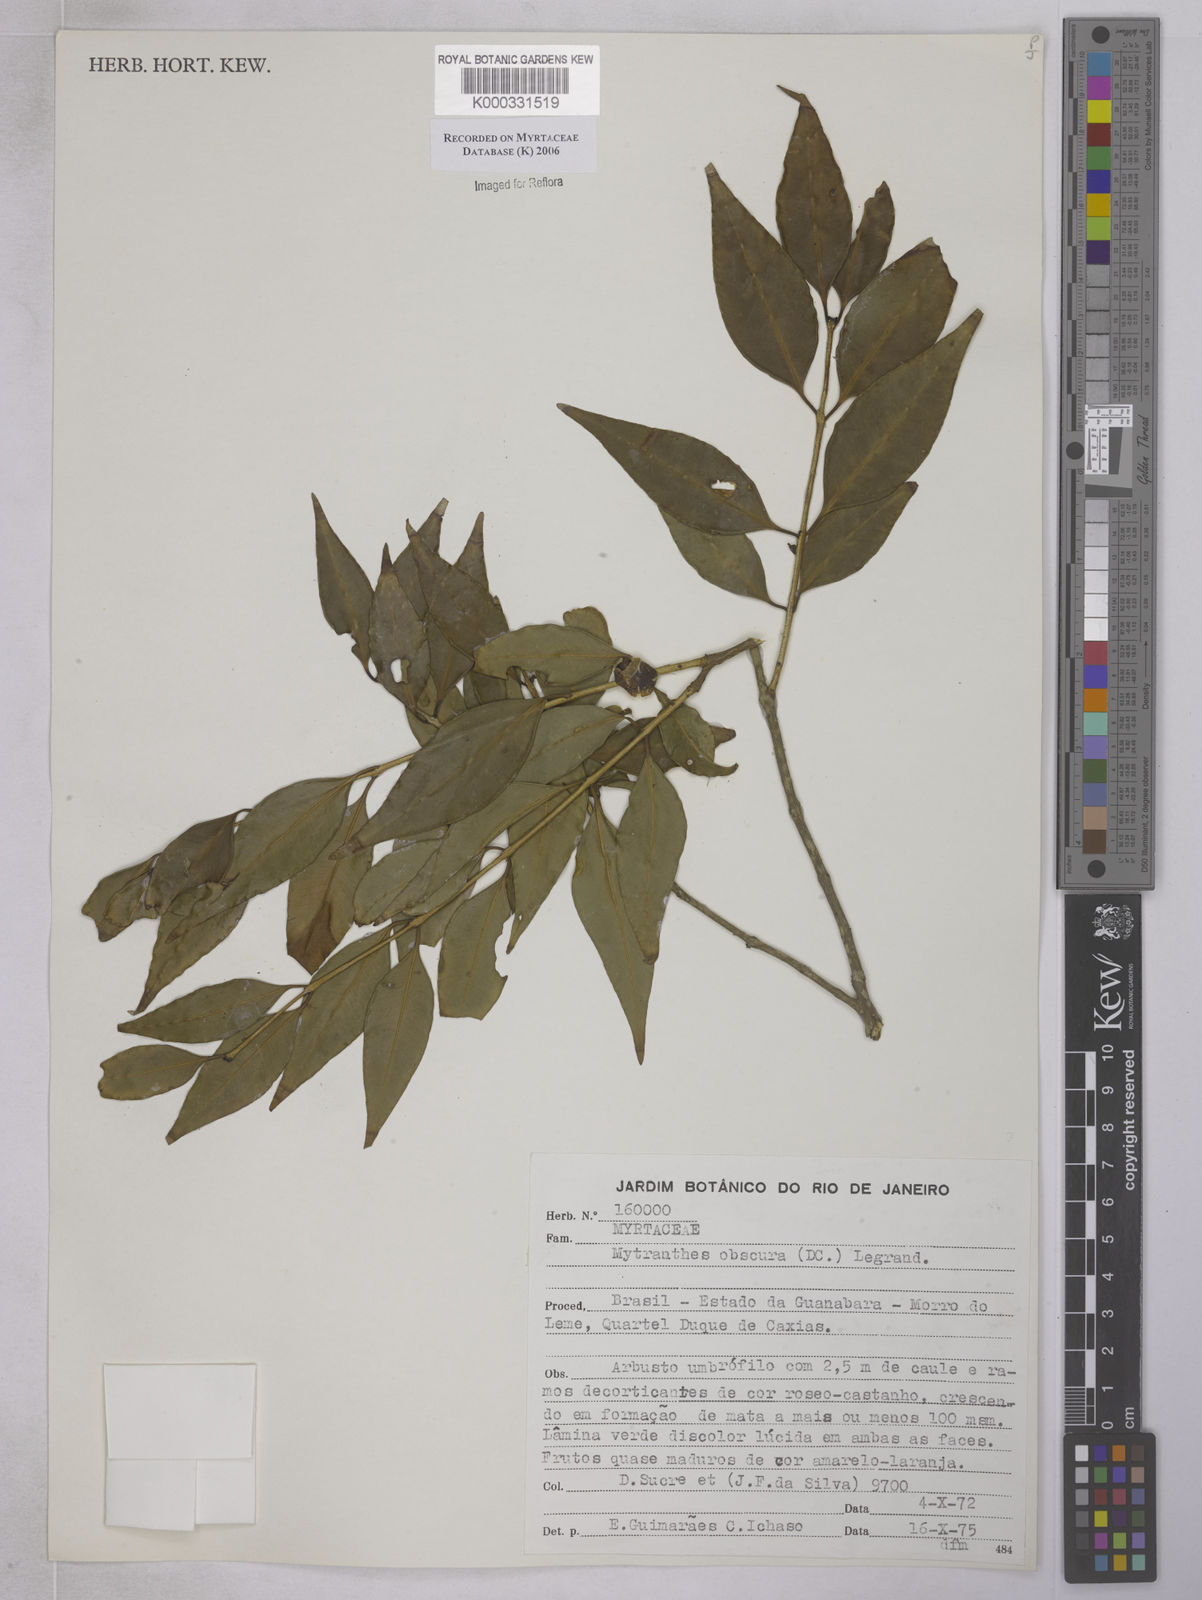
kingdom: Plantae
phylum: Tracheophyta
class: Magnoliopsida
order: Myrtales
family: Myrtaceae
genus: Neomitranthes
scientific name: Neomitranthes obscura
